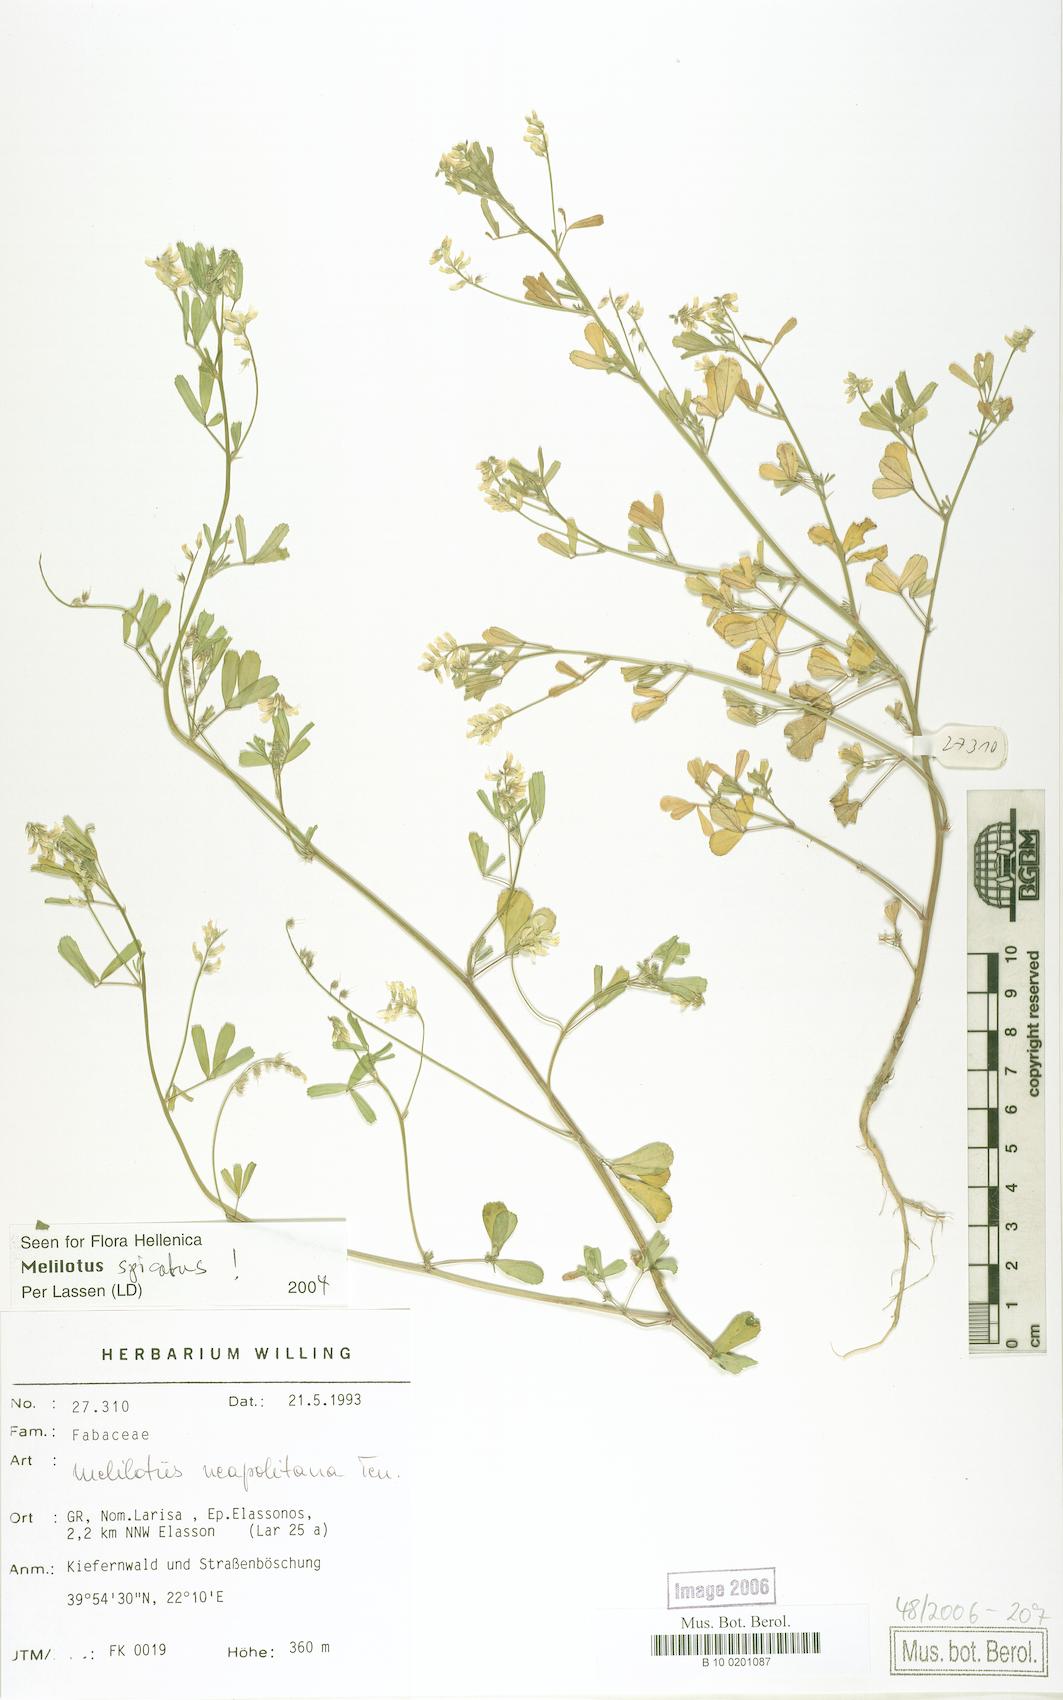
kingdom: Plantae
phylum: Tracheophyta
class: Magnoliopsida
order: Fabales
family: Fabaceae
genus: Melilotus
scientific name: Melilotus neapolitanus
